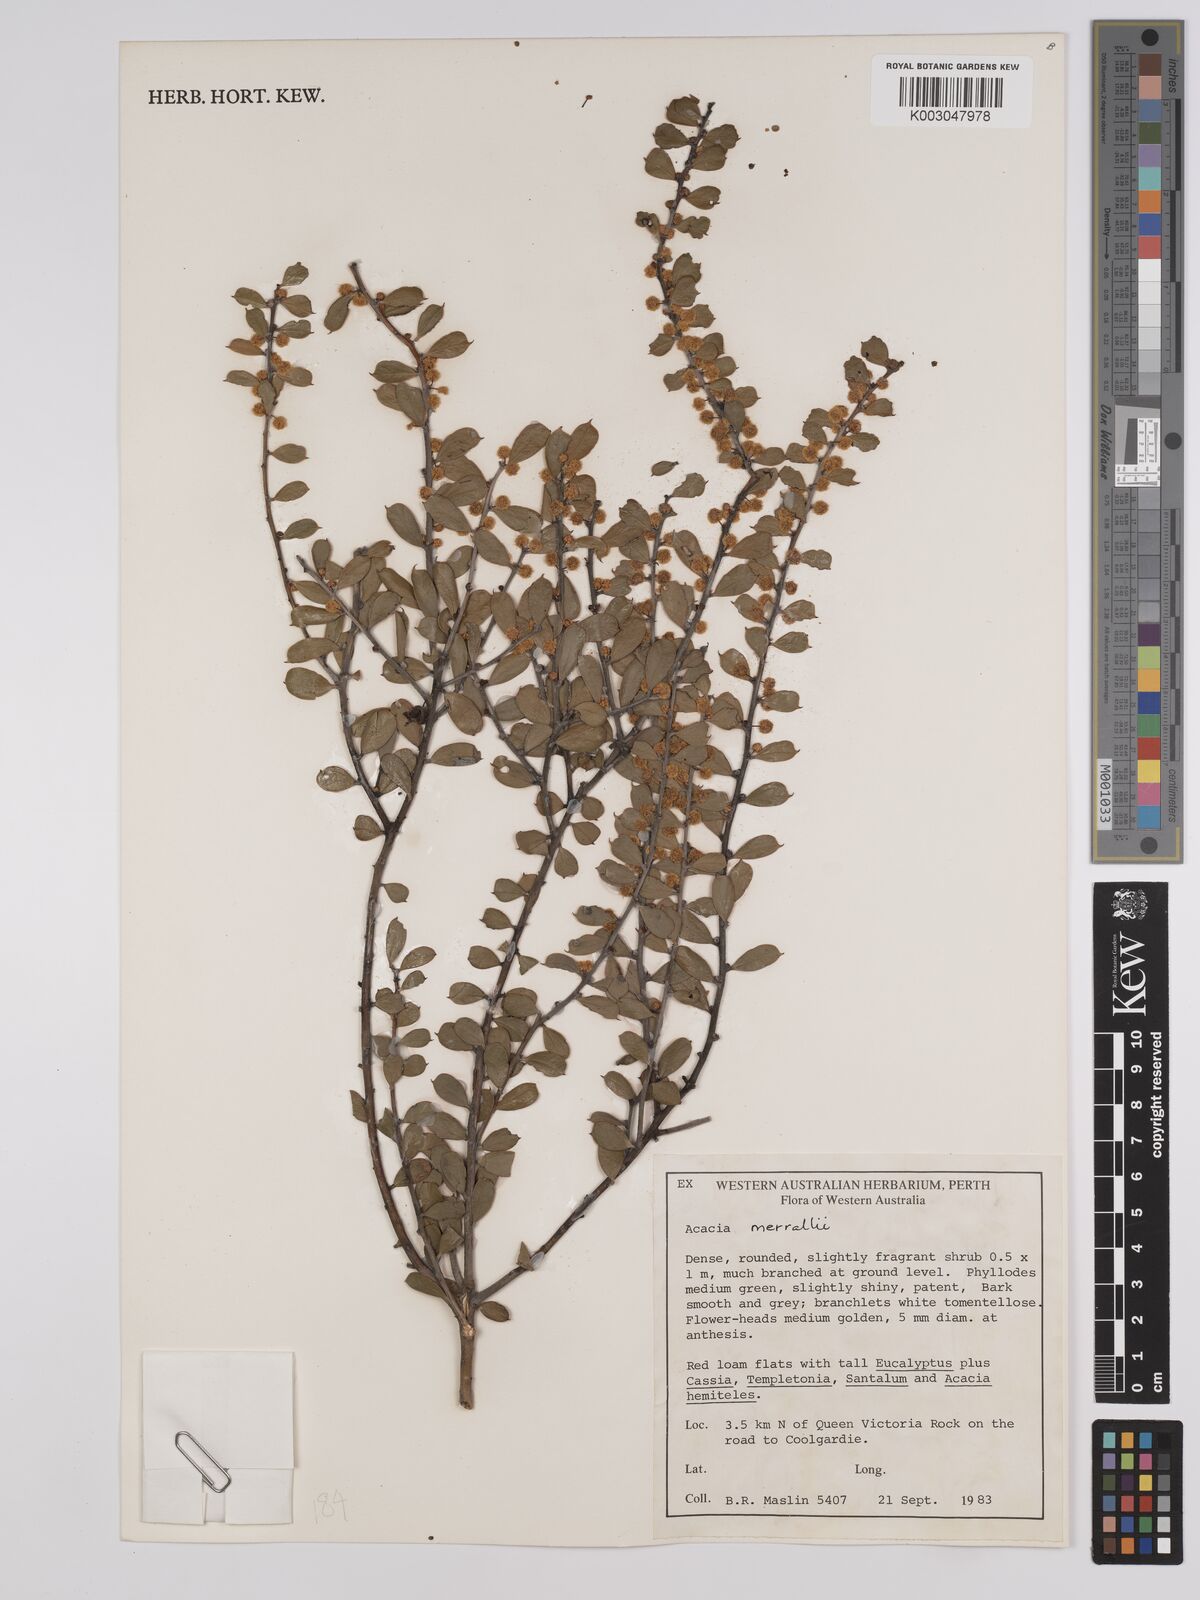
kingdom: Plantae
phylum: Tracheophyta
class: Magnoliopsida
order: Fabales
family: Fabaceae
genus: Acacia
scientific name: Acacia sericocarpa
